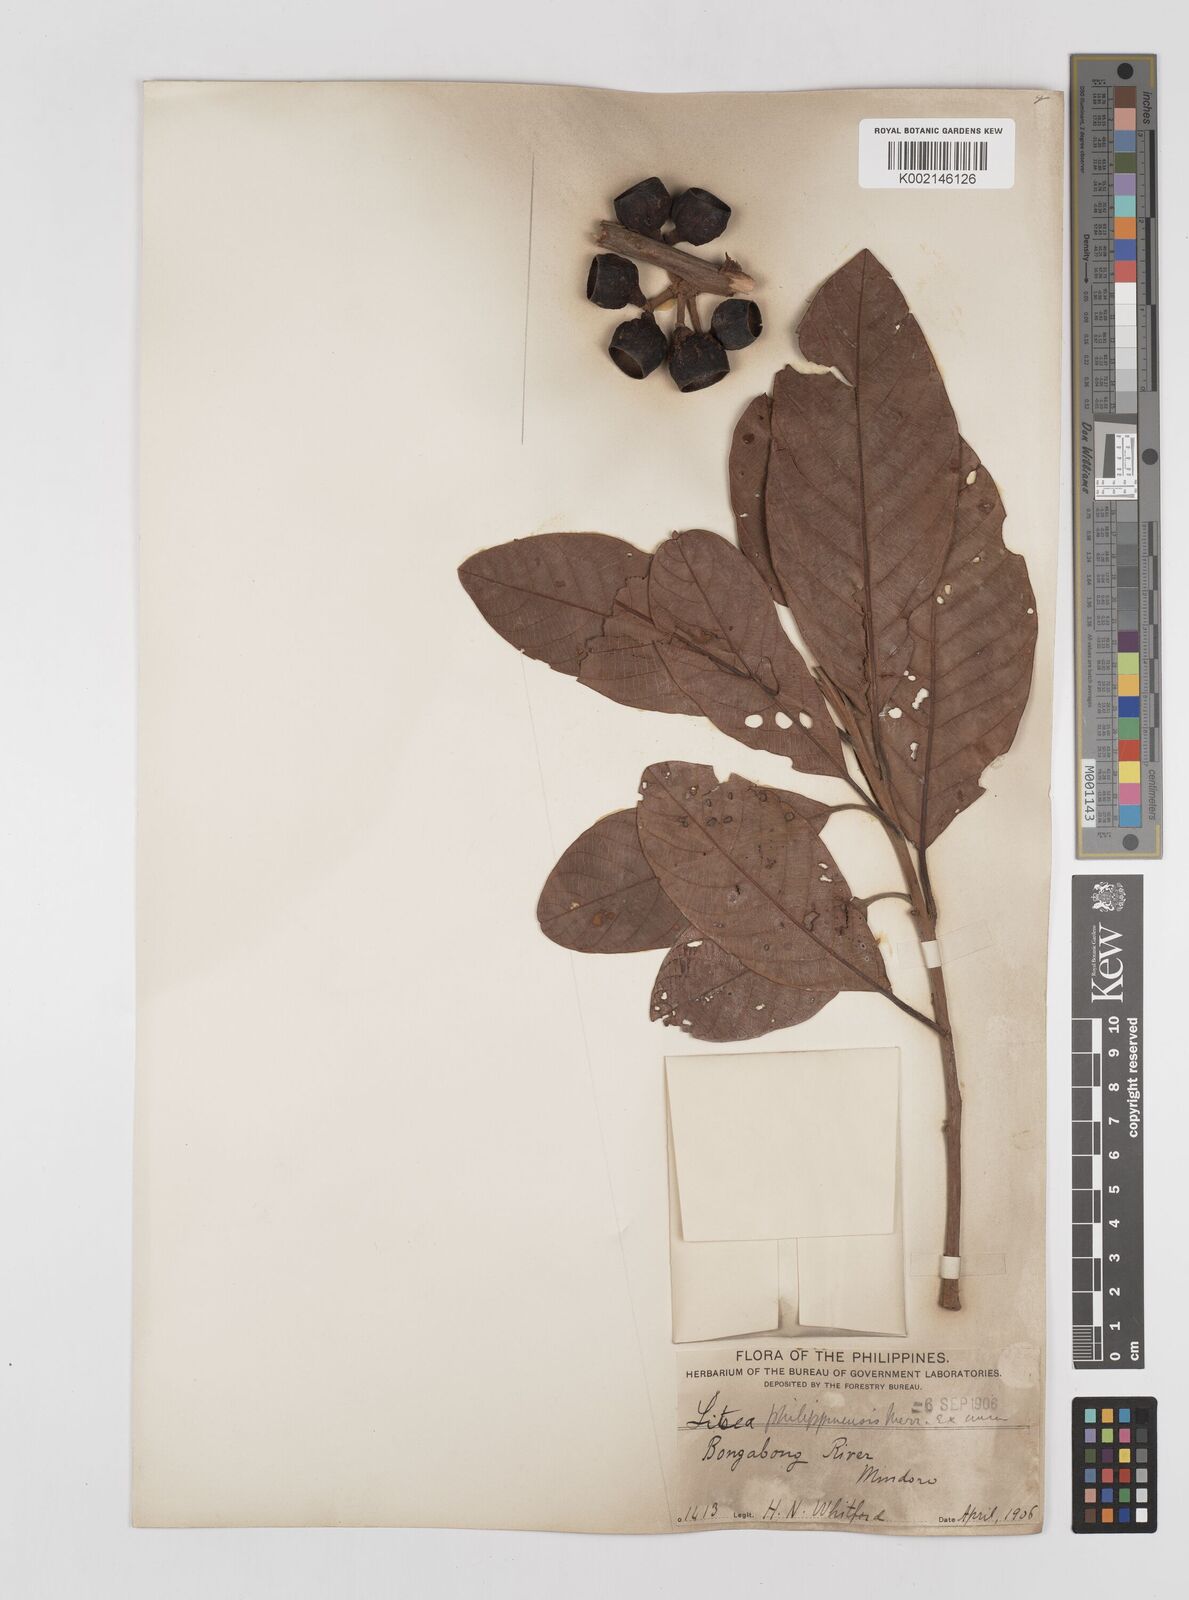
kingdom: Plantae
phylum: Tracheophyta
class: Magnoliopsida
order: Laurales
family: Lauraceae
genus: Litsea
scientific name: Litsea philippinensis
